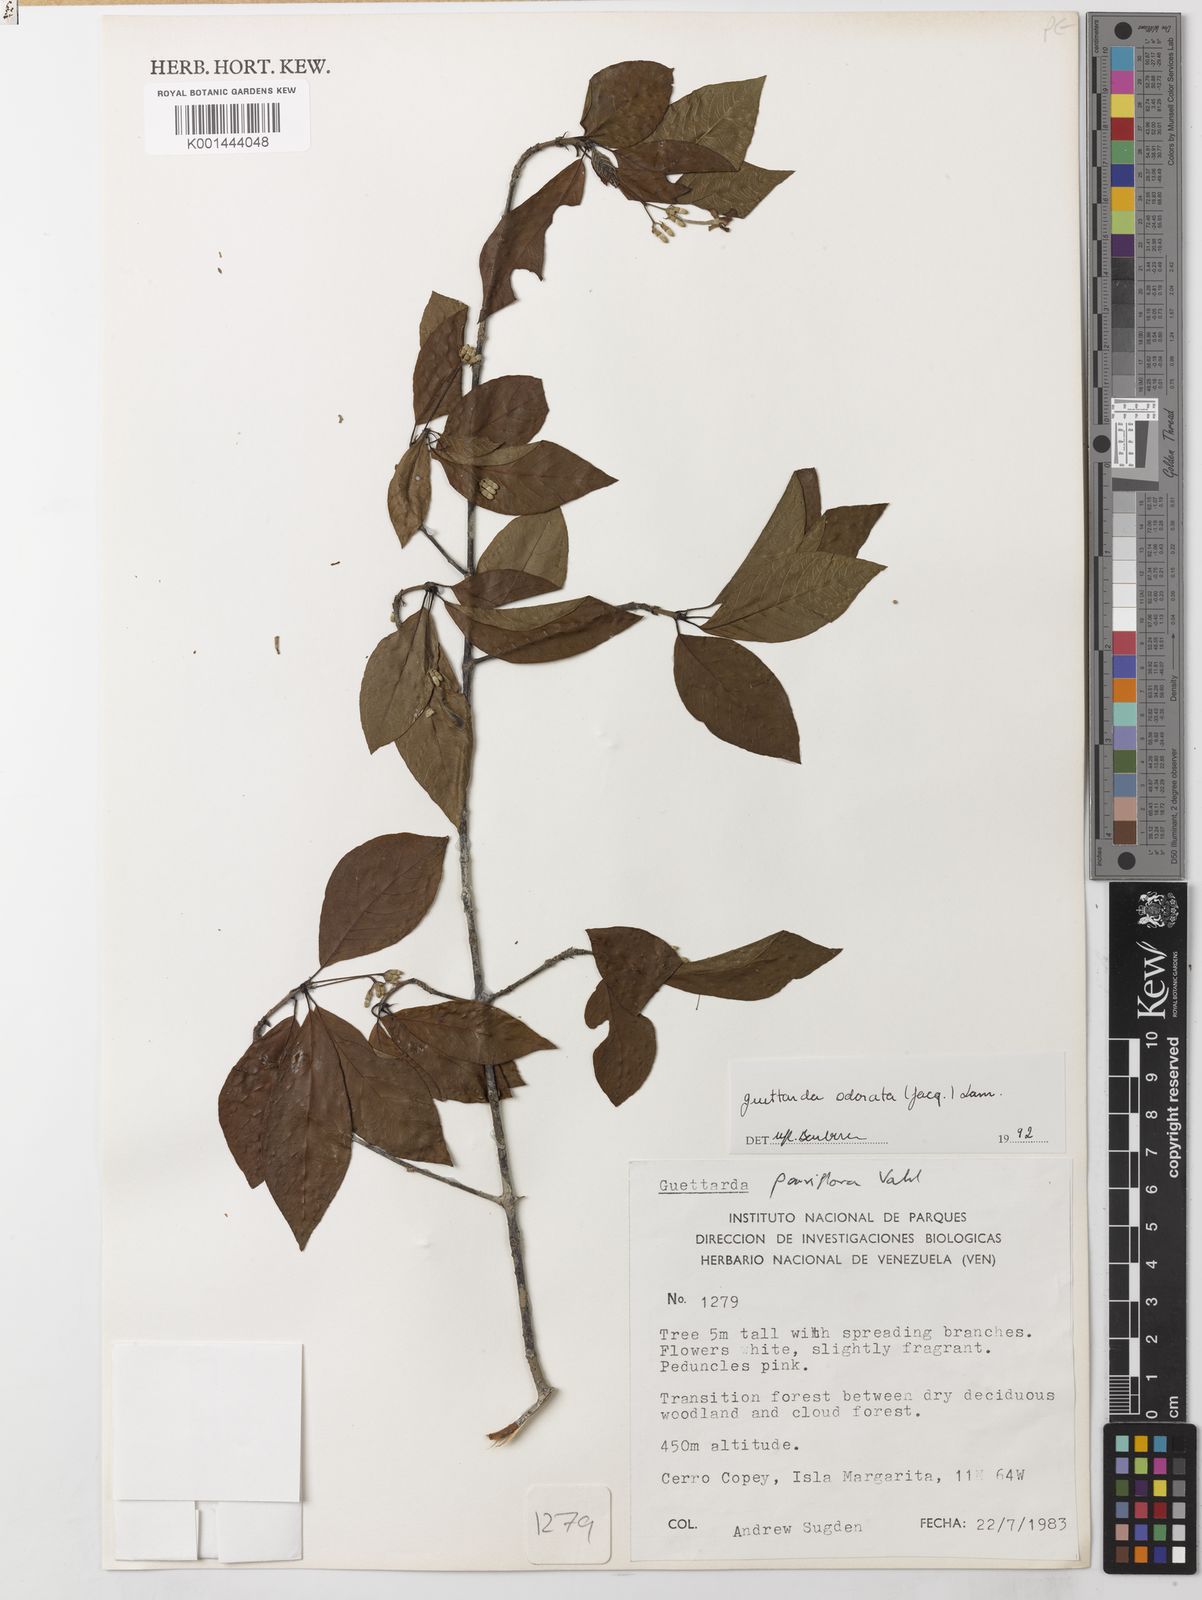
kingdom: Plantae
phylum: Tracheophyta
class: Magnoliopsida
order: Gentianales
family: Rubiaceae
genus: Guettarda
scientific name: Guettarda odorata
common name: Wild cherry
